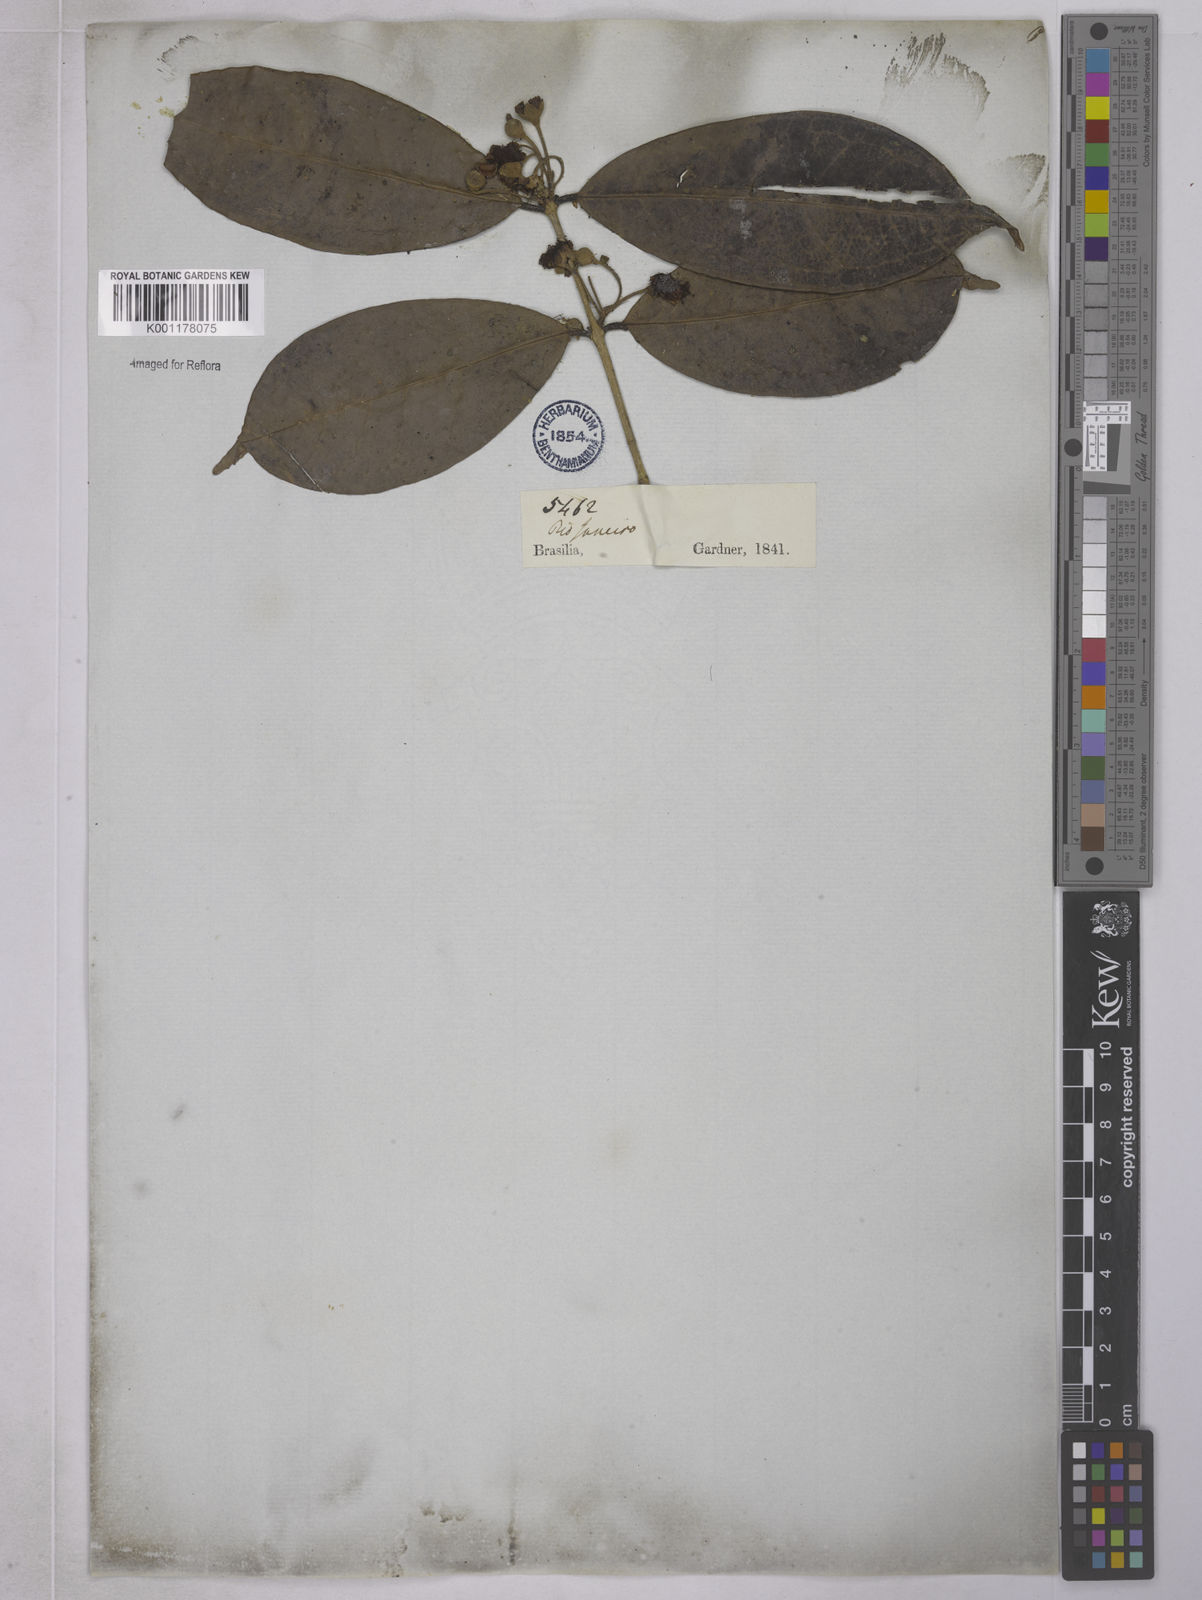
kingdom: Plantae
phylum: Tracheophyta
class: Magnoliopsida
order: Myrtales
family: Myrtaceae
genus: Eugenia
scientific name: Eugenia brevistyla
